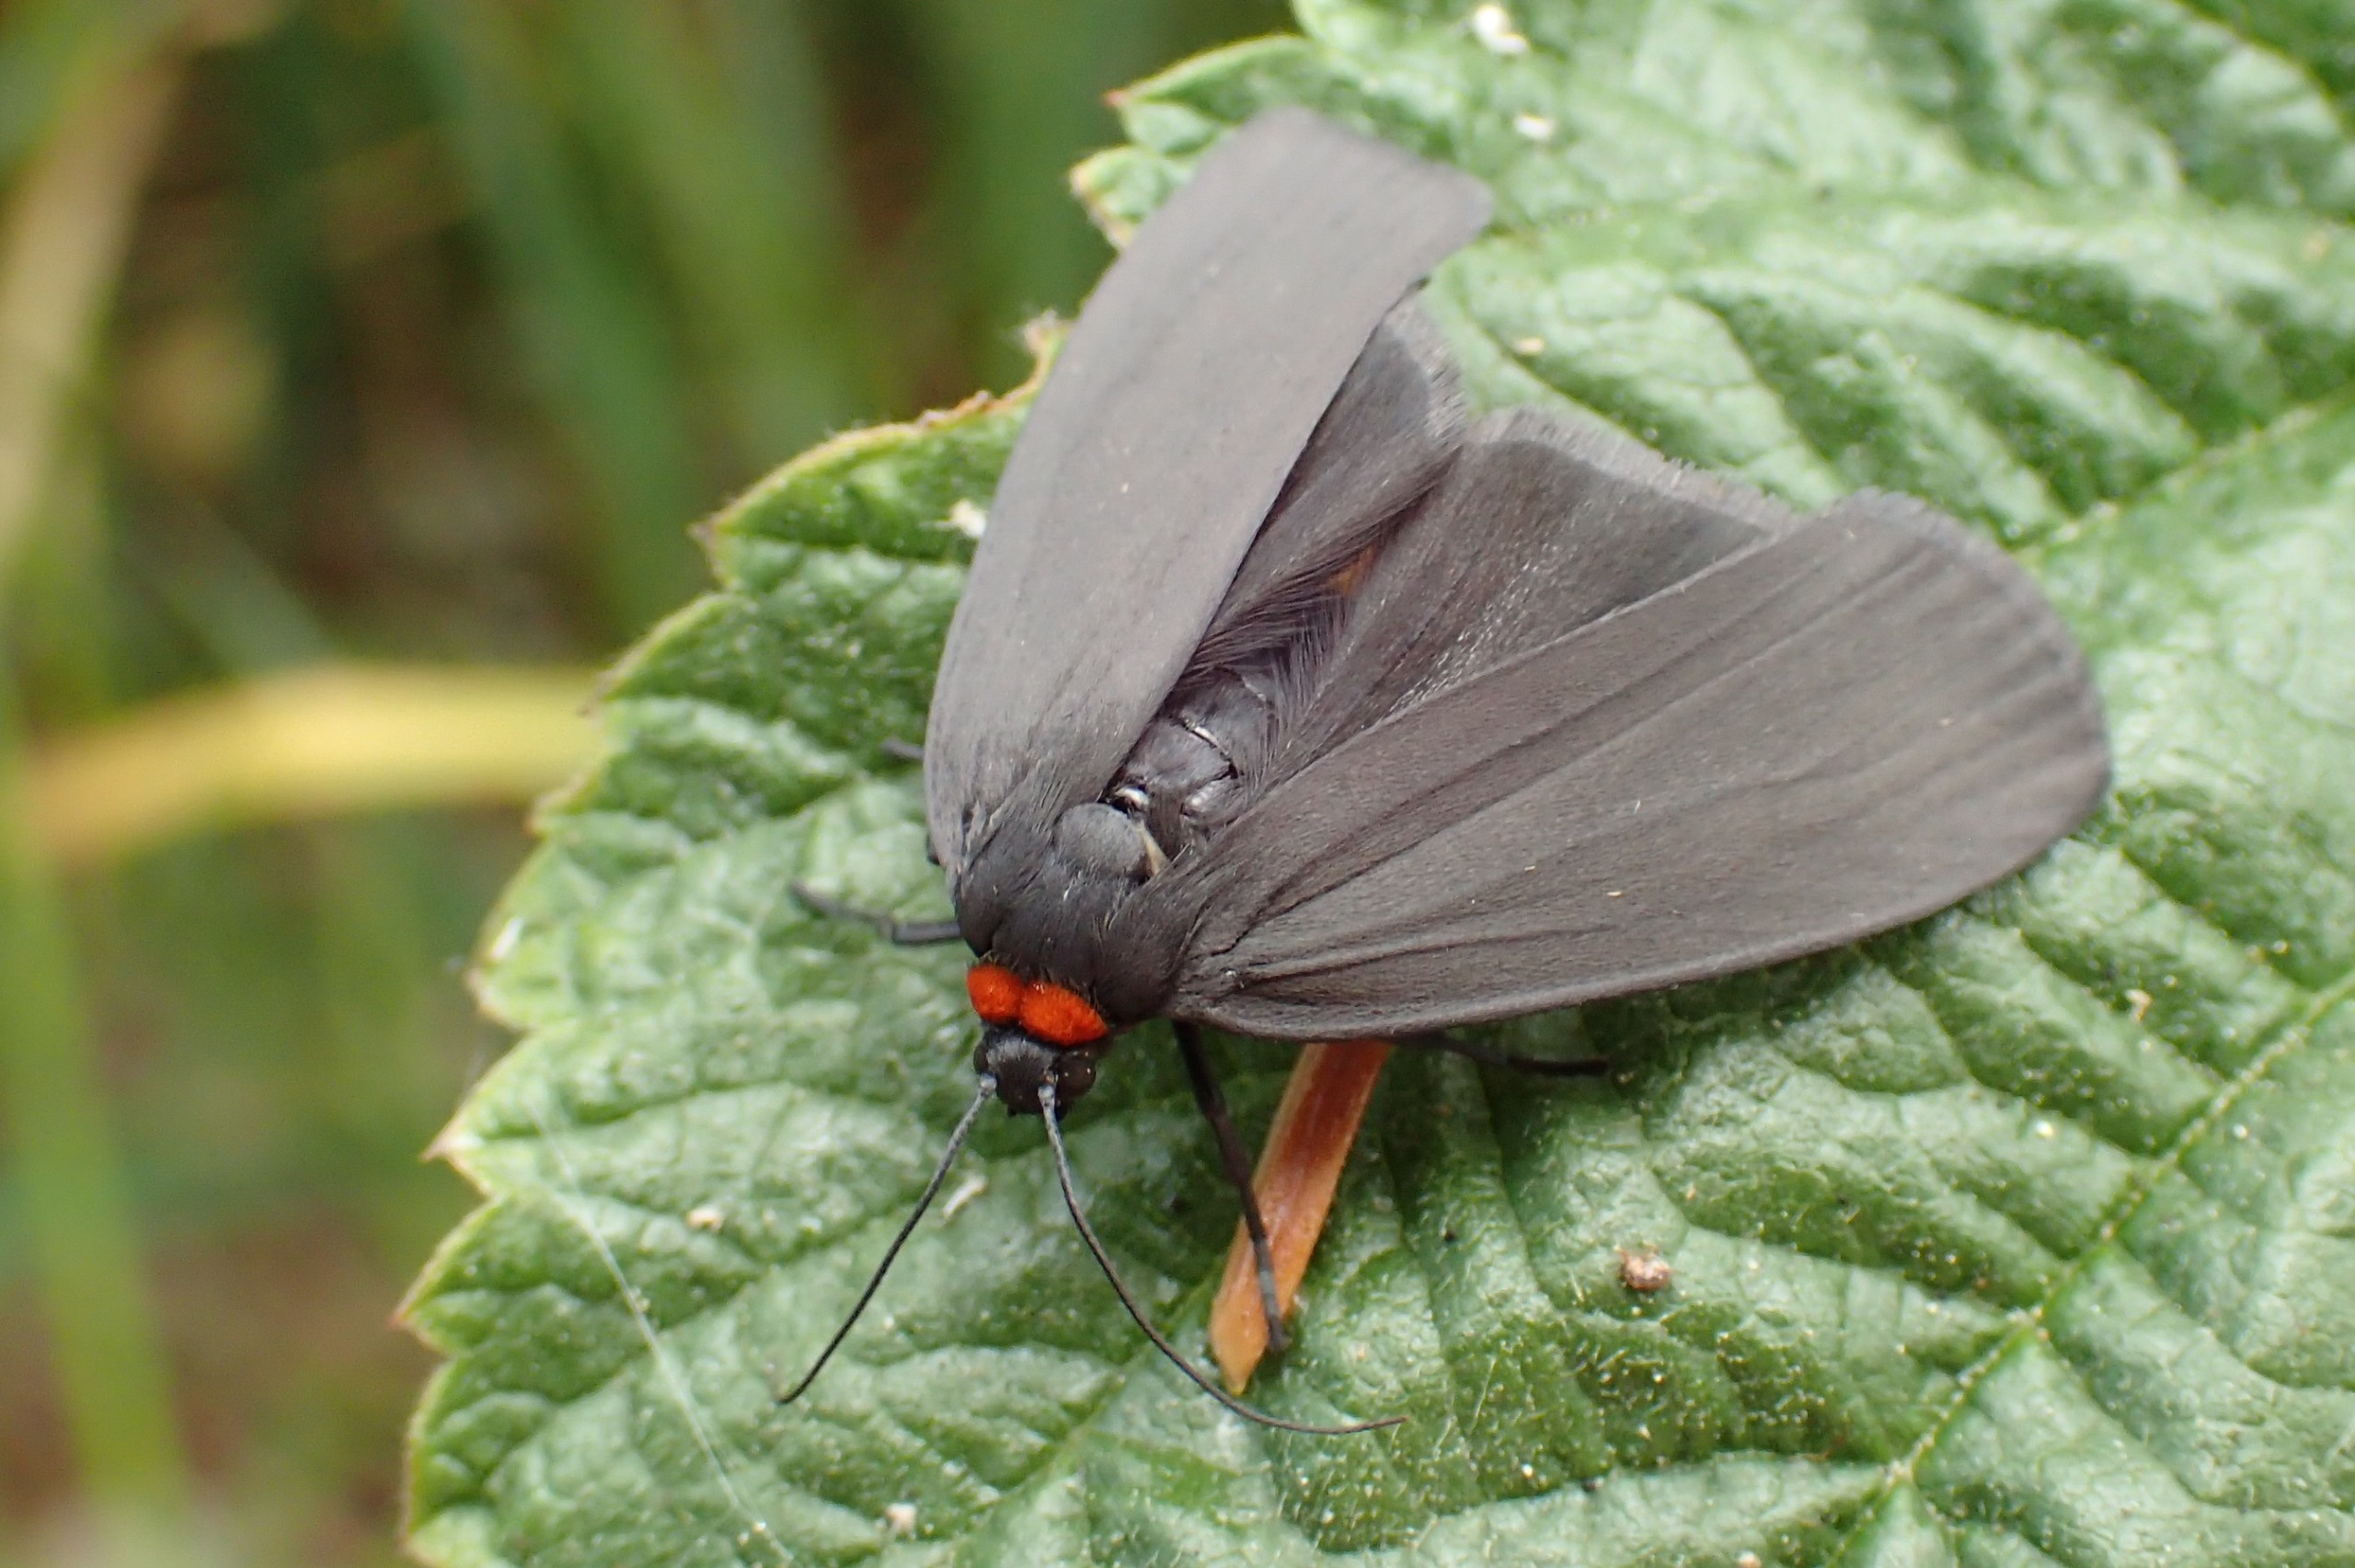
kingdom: Animalia
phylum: Arthropoda
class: Insecta
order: Lepidoptera
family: Erebidae
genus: Atolmis
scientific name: Atolmis rubricollis
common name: Blodnakke
